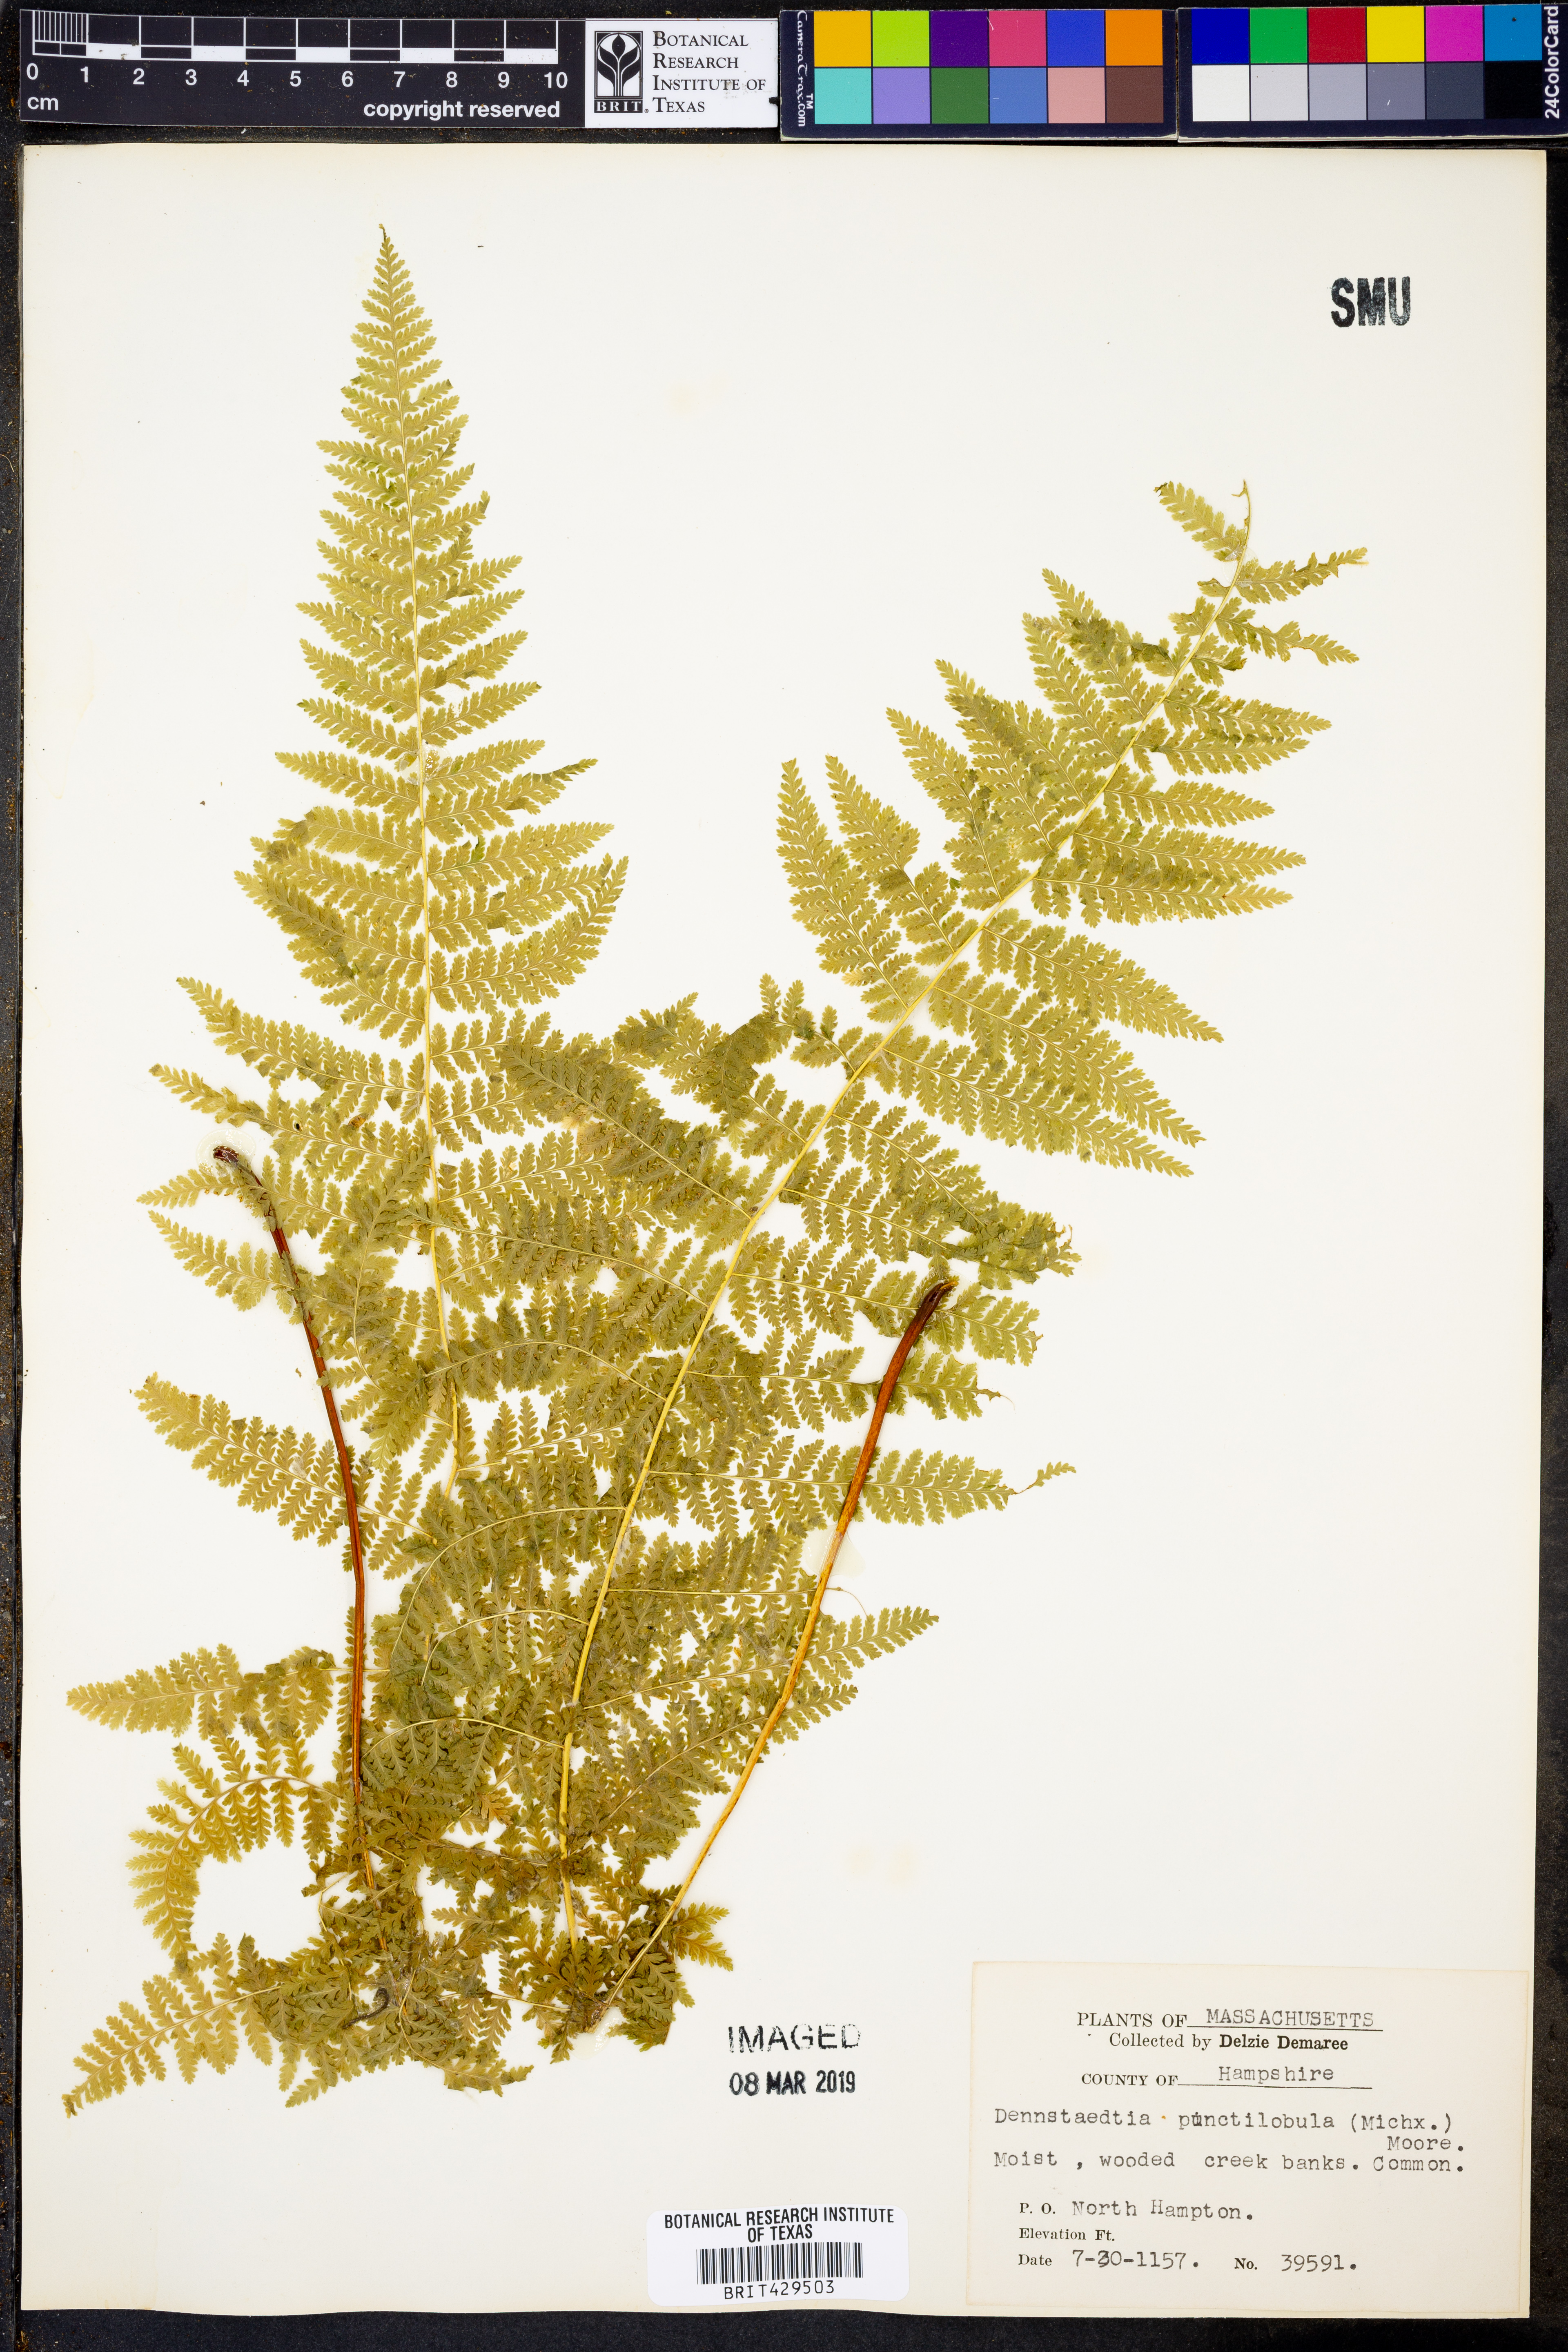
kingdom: Plantae
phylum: Tracheophyta
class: Polypodiopsida
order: Polypodiales
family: Dennstaedtiaceae
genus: Sitobolium
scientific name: Sitobolium punctilobum
